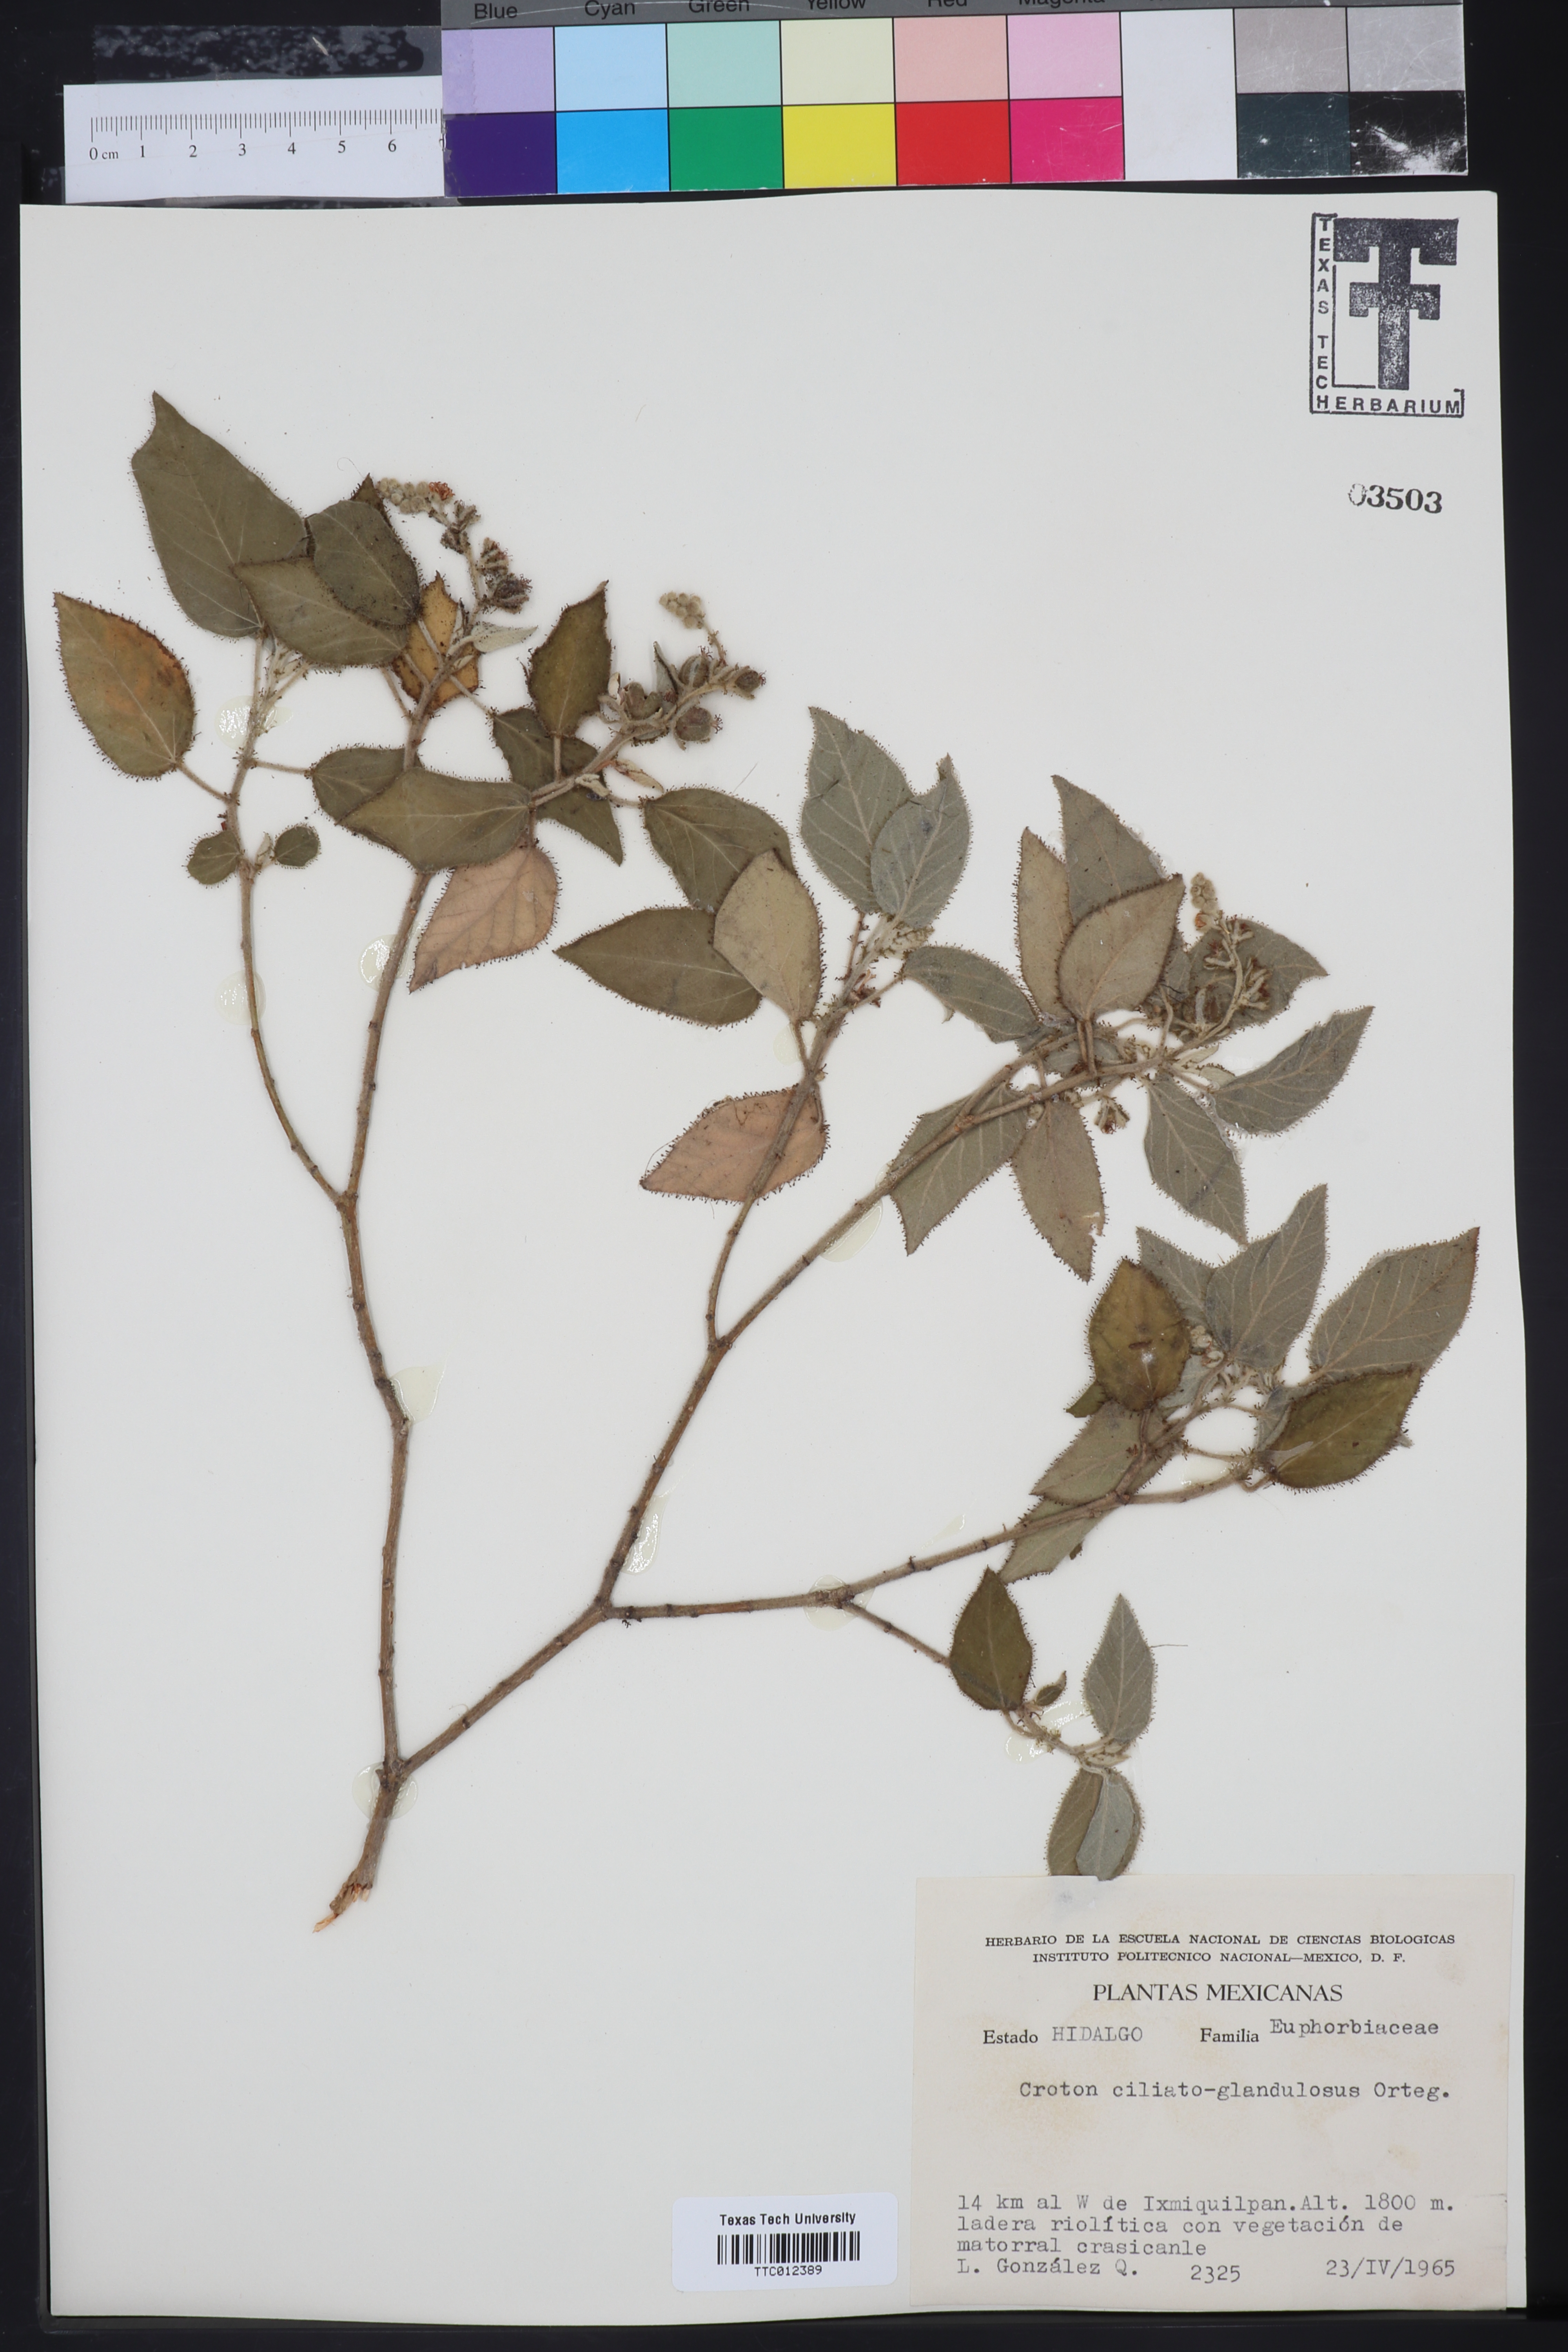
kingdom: Plantae
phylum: Tracheophyta
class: Magnoliopsida
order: Malpighiales
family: Euphorbiaceae
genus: Croton
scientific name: Croton ciliatoglandulifer
